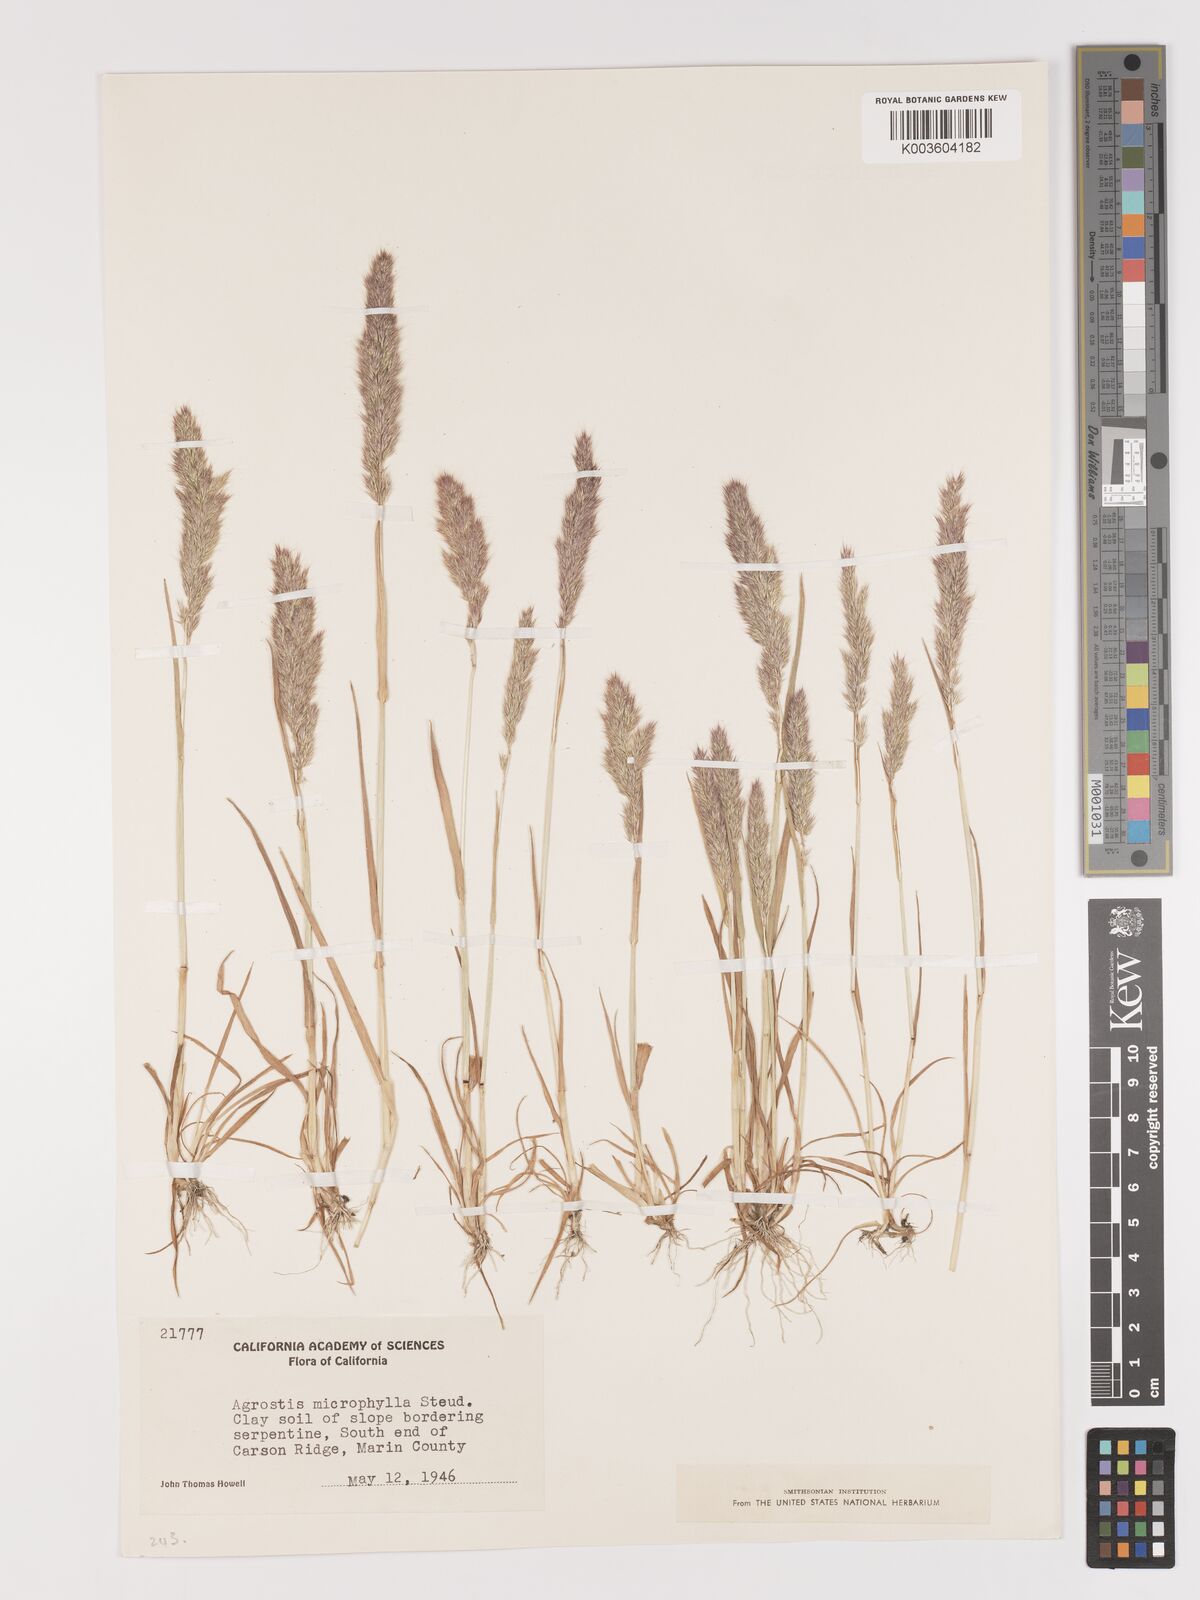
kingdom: Plantae
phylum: Tracheophyta
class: Liliopsida
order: Poales
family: Poaceae
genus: Agrostis
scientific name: Agrostis microphylla
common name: Small-leaf bent
